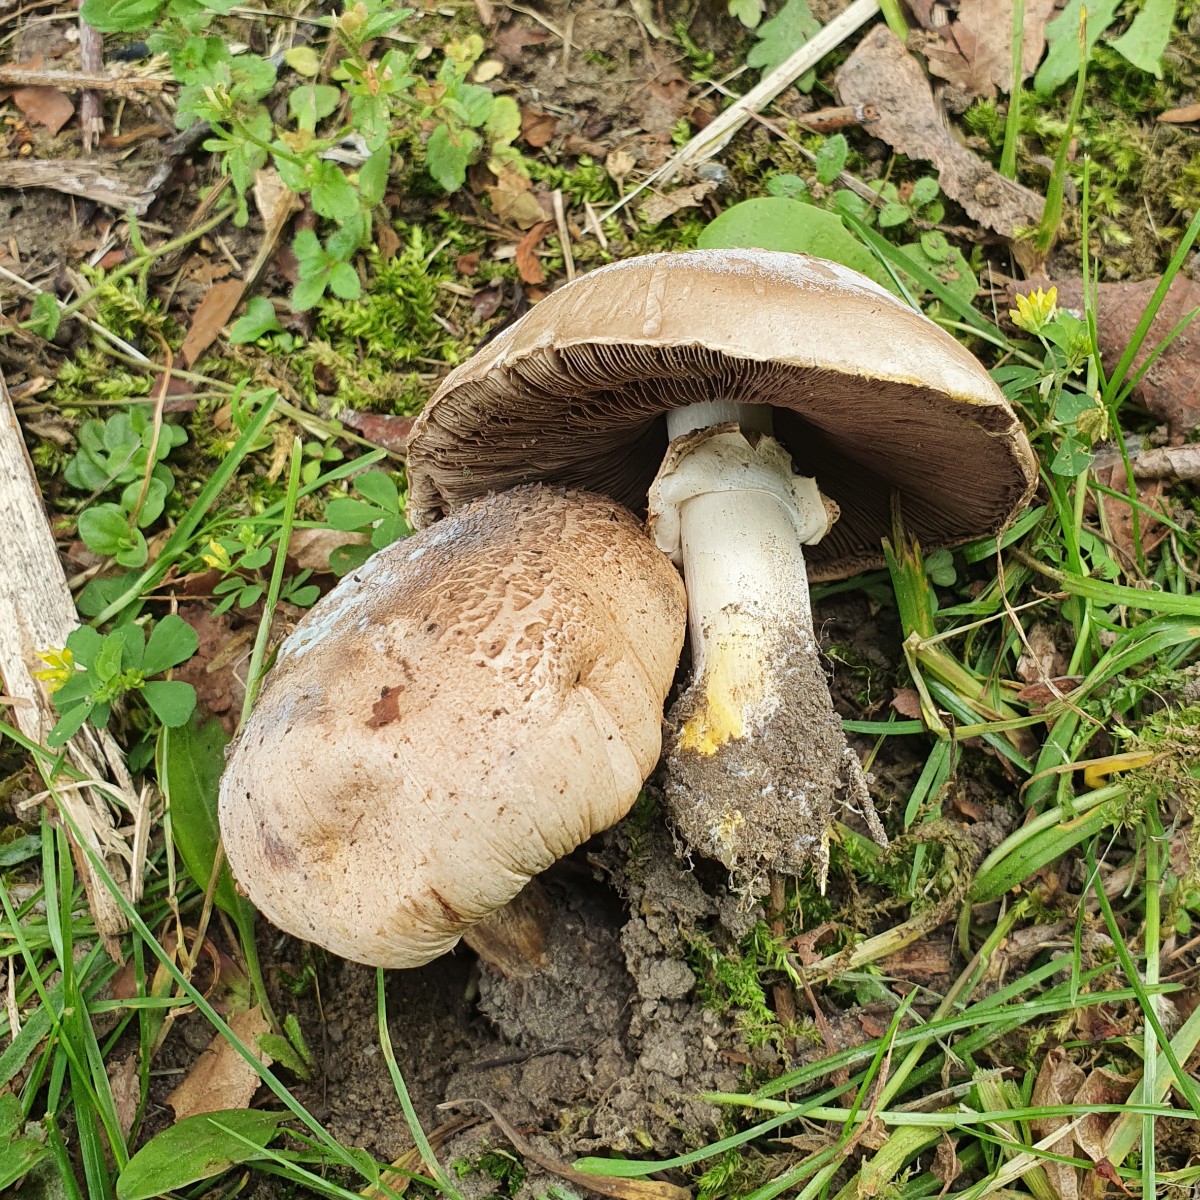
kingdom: Fungi
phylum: Basidiomycota
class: Agaricomycetes
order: Agaricales
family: Agaricaceae
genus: Agaricus
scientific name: Agaricus xanthodermus
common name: karbol-champignon
